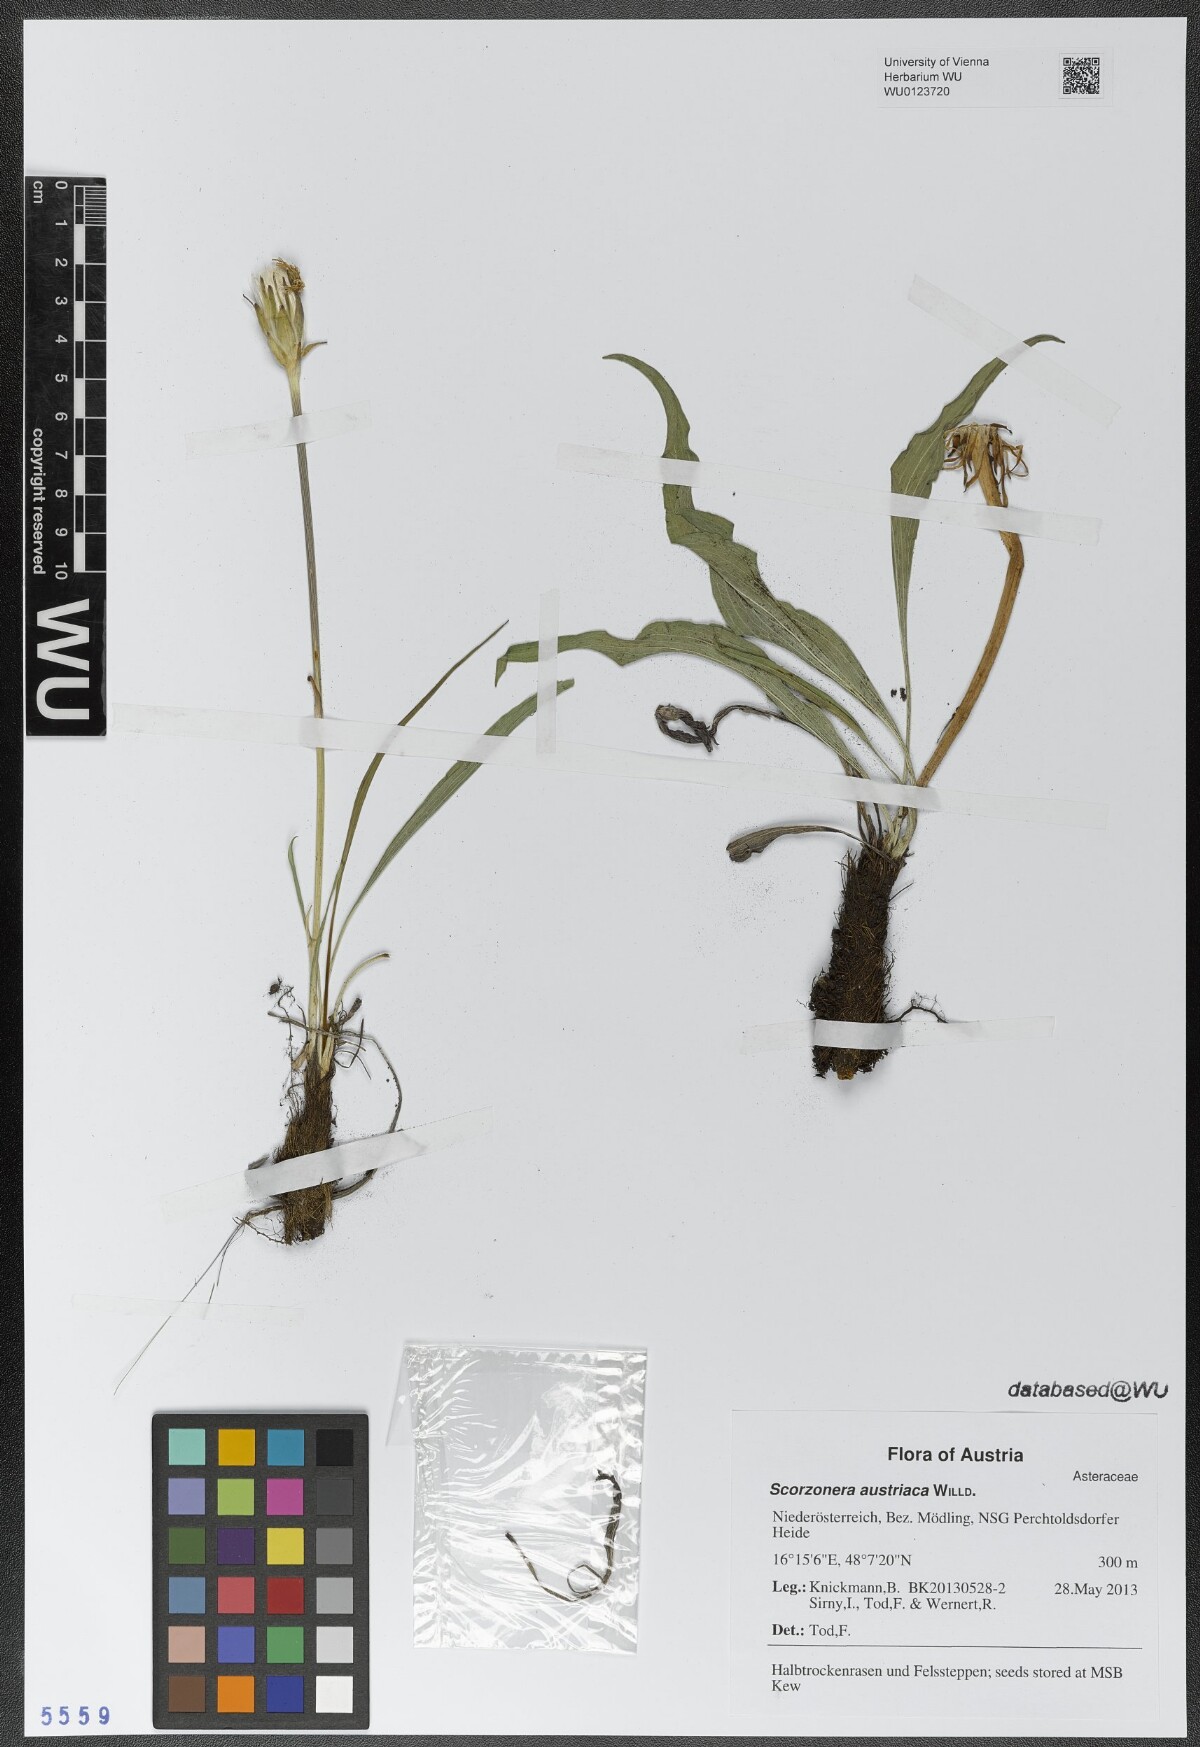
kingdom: Plantae
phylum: Tracheophyta
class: Magnoliopsida
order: Asterales
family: Asteraceae
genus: Takhtajaniantha
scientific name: Takhtajaniantha austriaca
